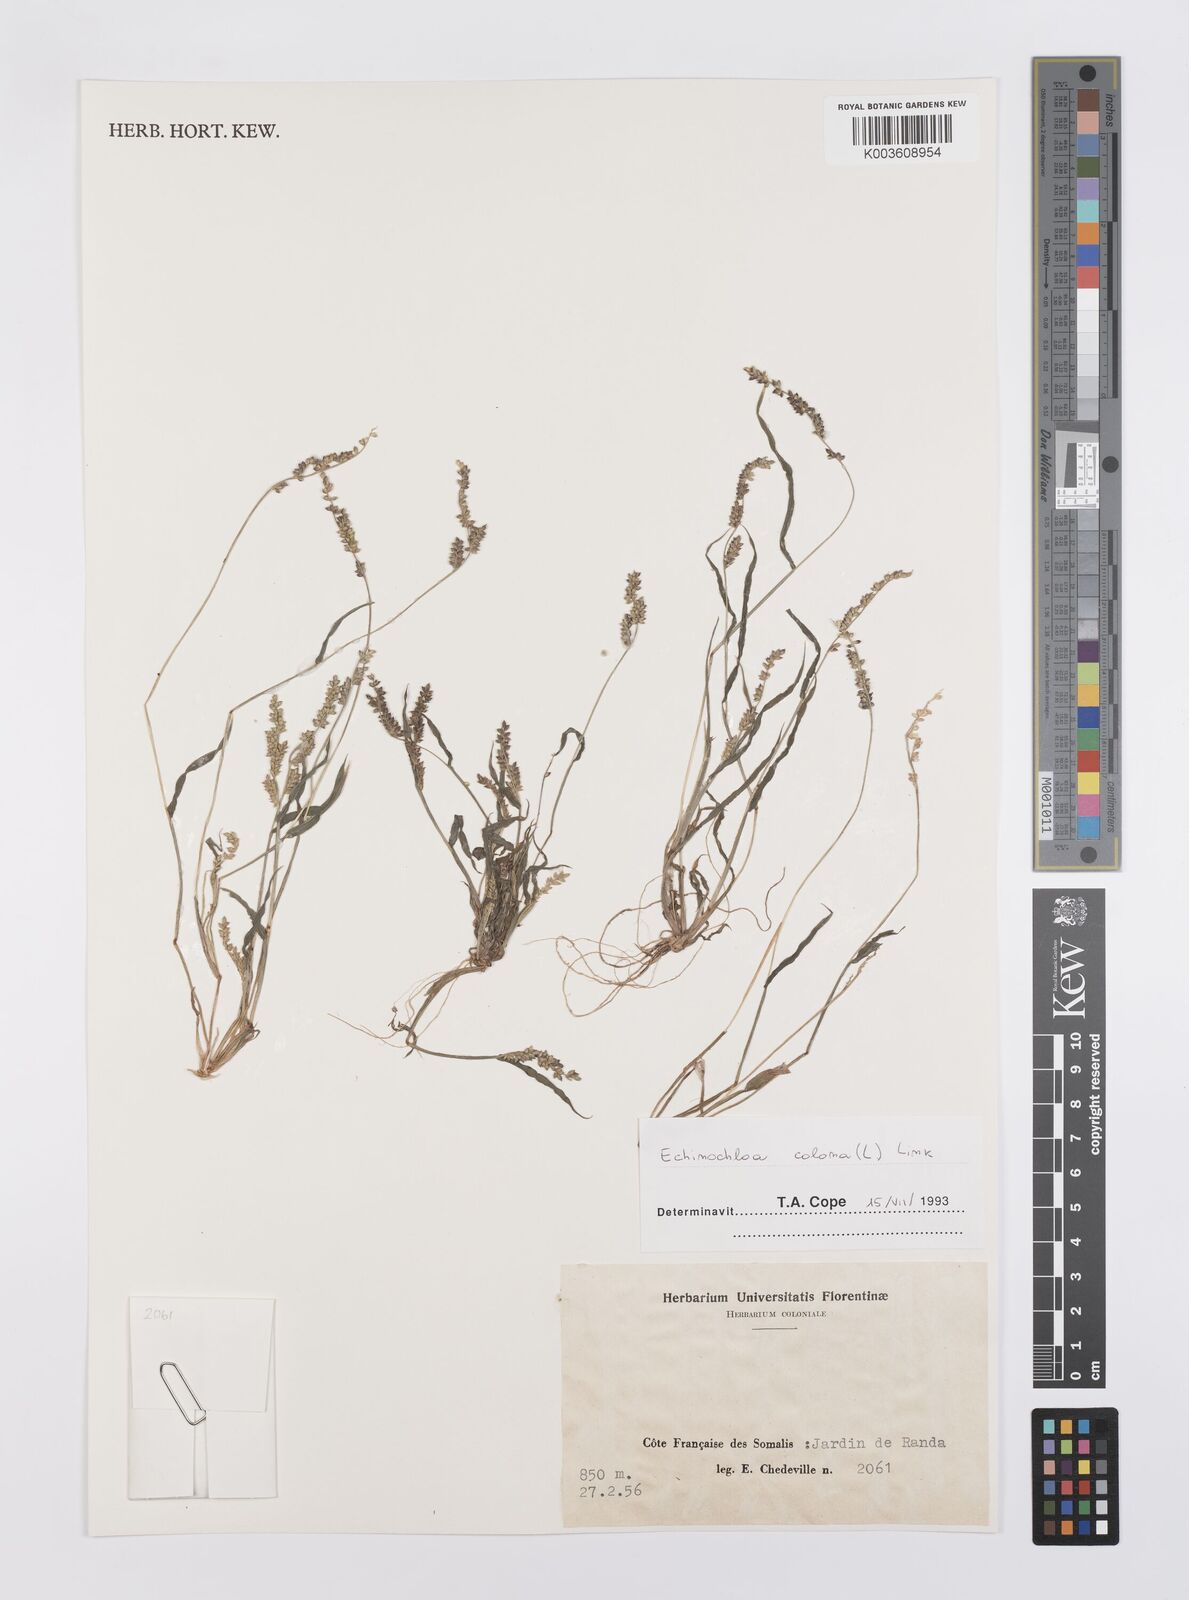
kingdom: Plantae
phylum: Tracheophyta
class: Liliopsida
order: Poales
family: Poaceae
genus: Echinochloa
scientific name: Echinochloa colonum
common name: Jungle rice
